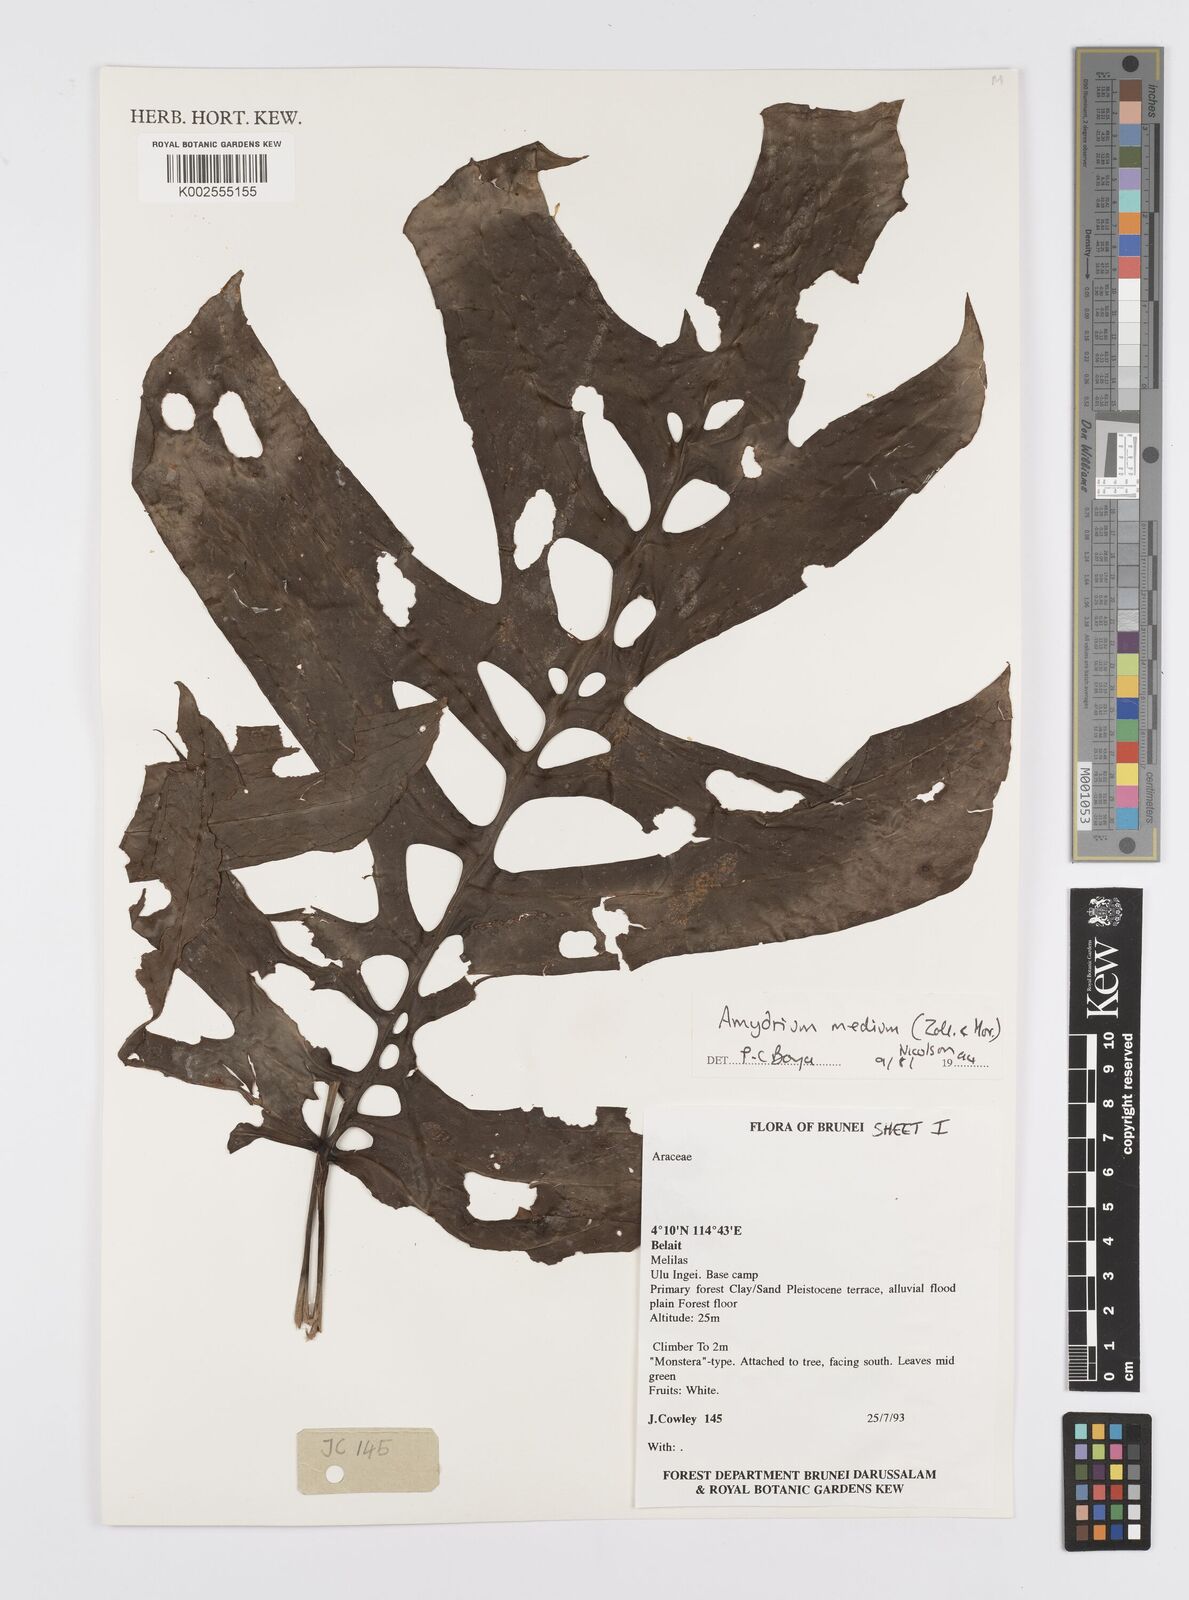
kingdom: Plantae
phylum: Tracheophyta
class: Liliopsida
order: Alismatales
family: Araceae
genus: Amydrium
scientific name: Amydrium medium
